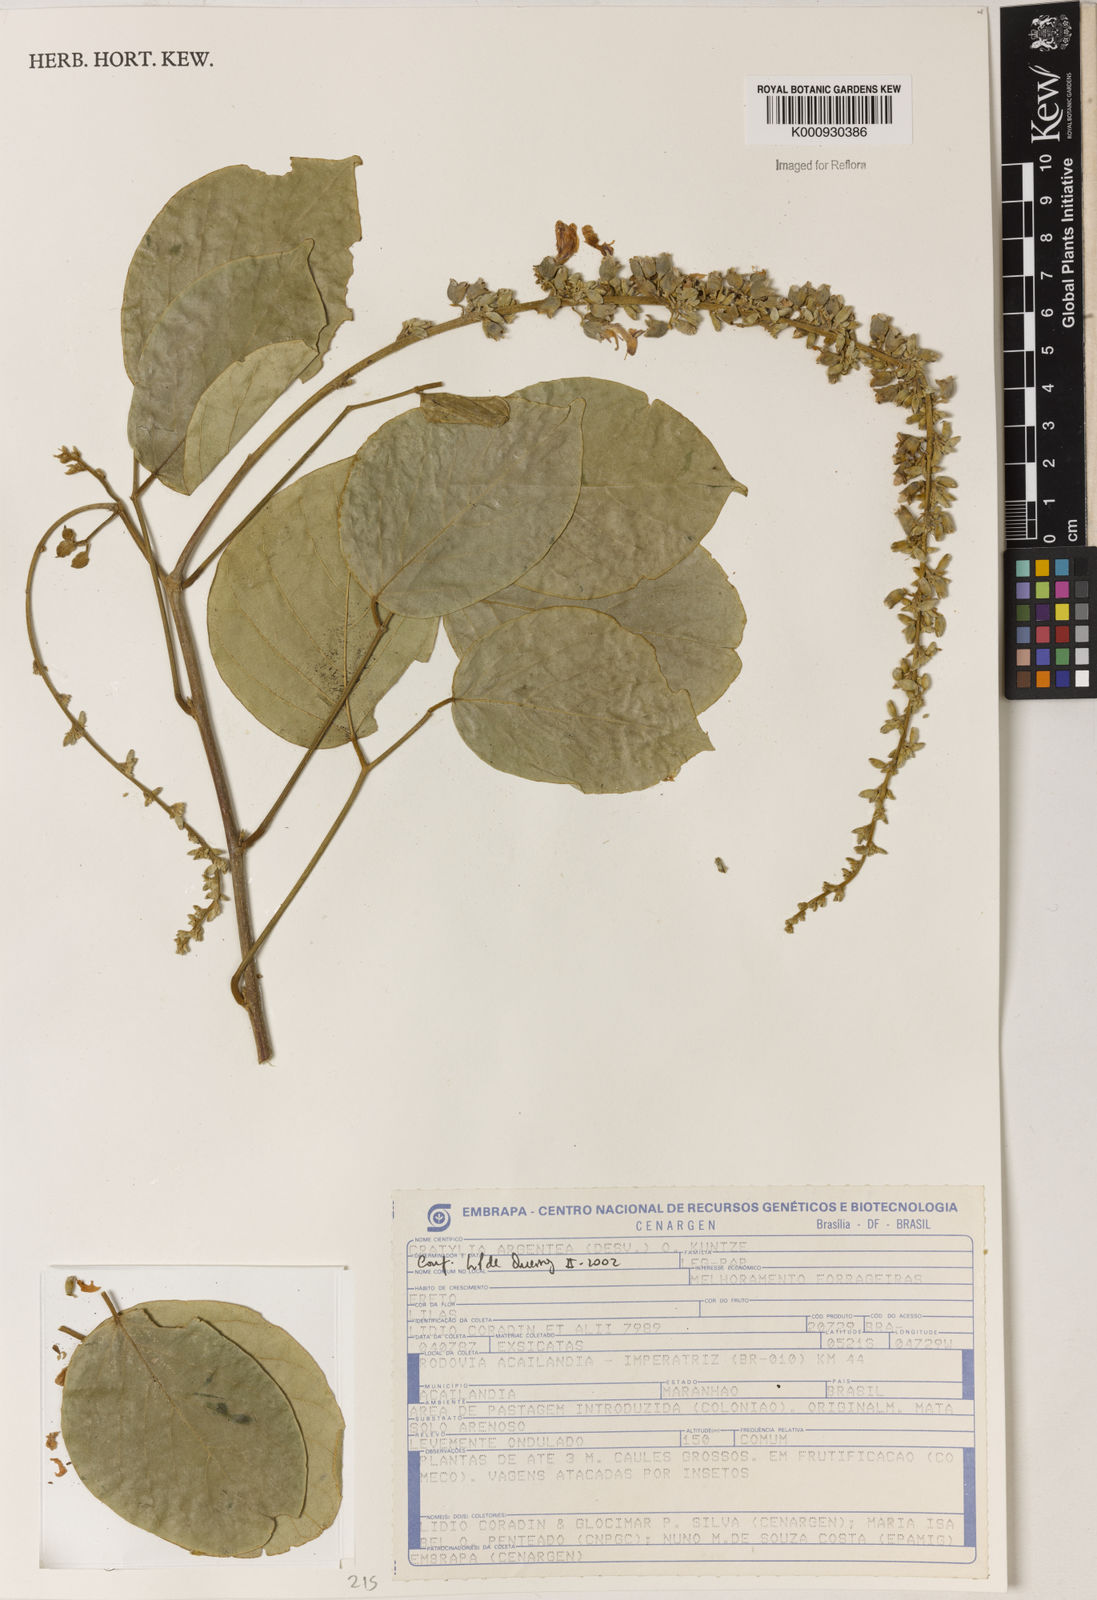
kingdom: Plantae
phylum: Tracheophyta
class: Magnoliopsida
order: Fabales
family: Fabaceae
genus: Cratylia
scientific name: Cratylia argentea
